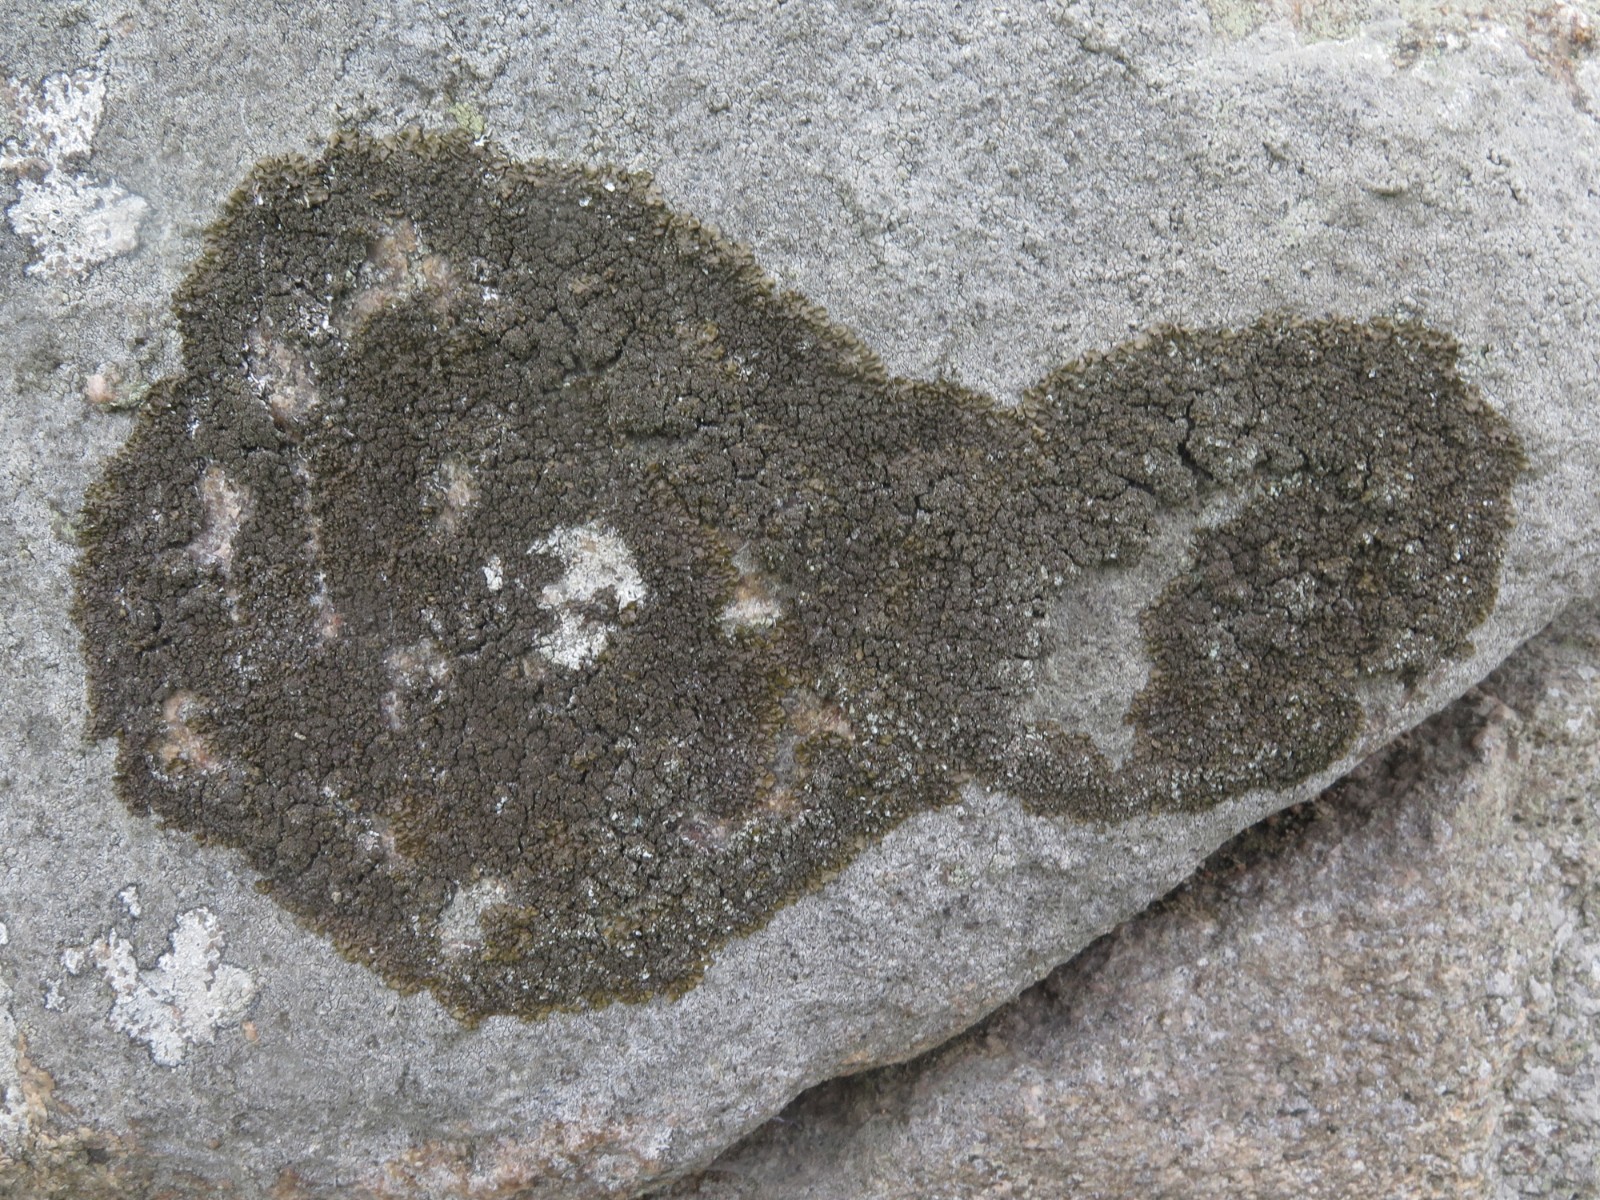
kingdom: Fungi
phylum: Ascomycota
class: Lecanoromycetes
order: Lecanorales
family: Parmeliaceae
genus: Xanthoparmelia
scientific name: Xanthoparmelia verruculifera
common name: småknoppet skållav
